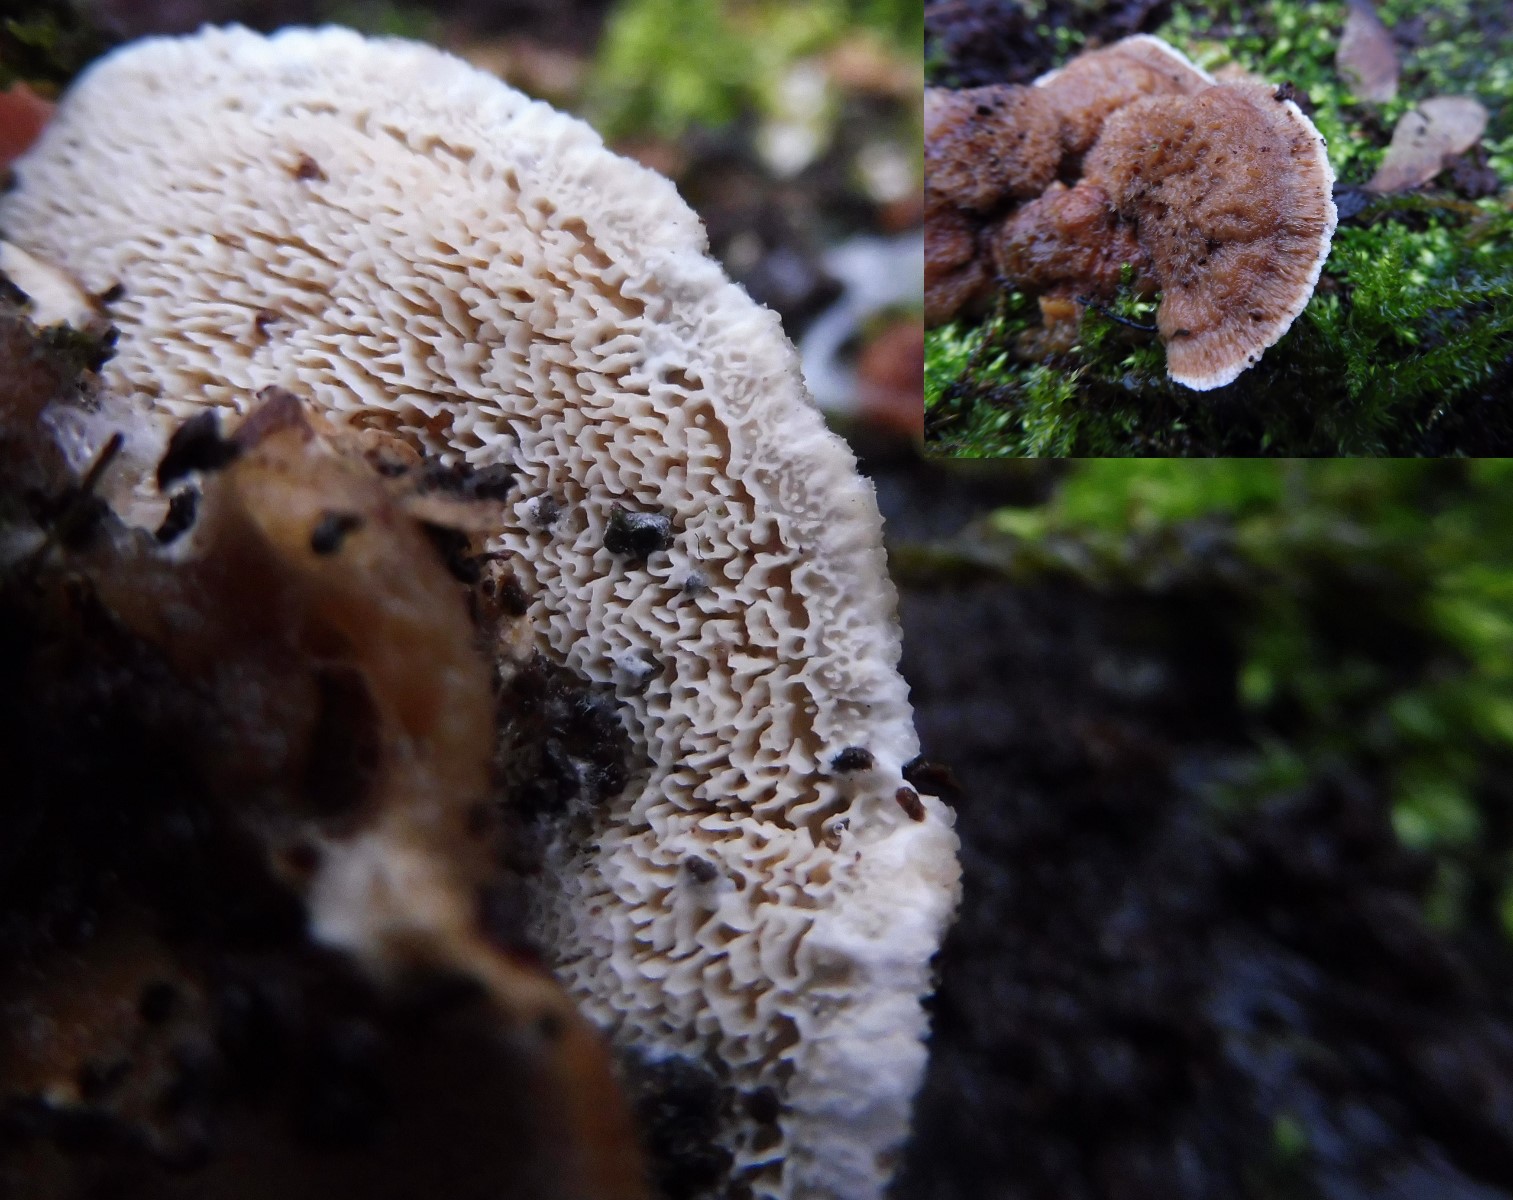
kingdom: Fungi
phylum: Basidiomycota
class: Agaricomycetes
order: Polyporales
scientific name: Polyporales
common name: poresvampordenen
